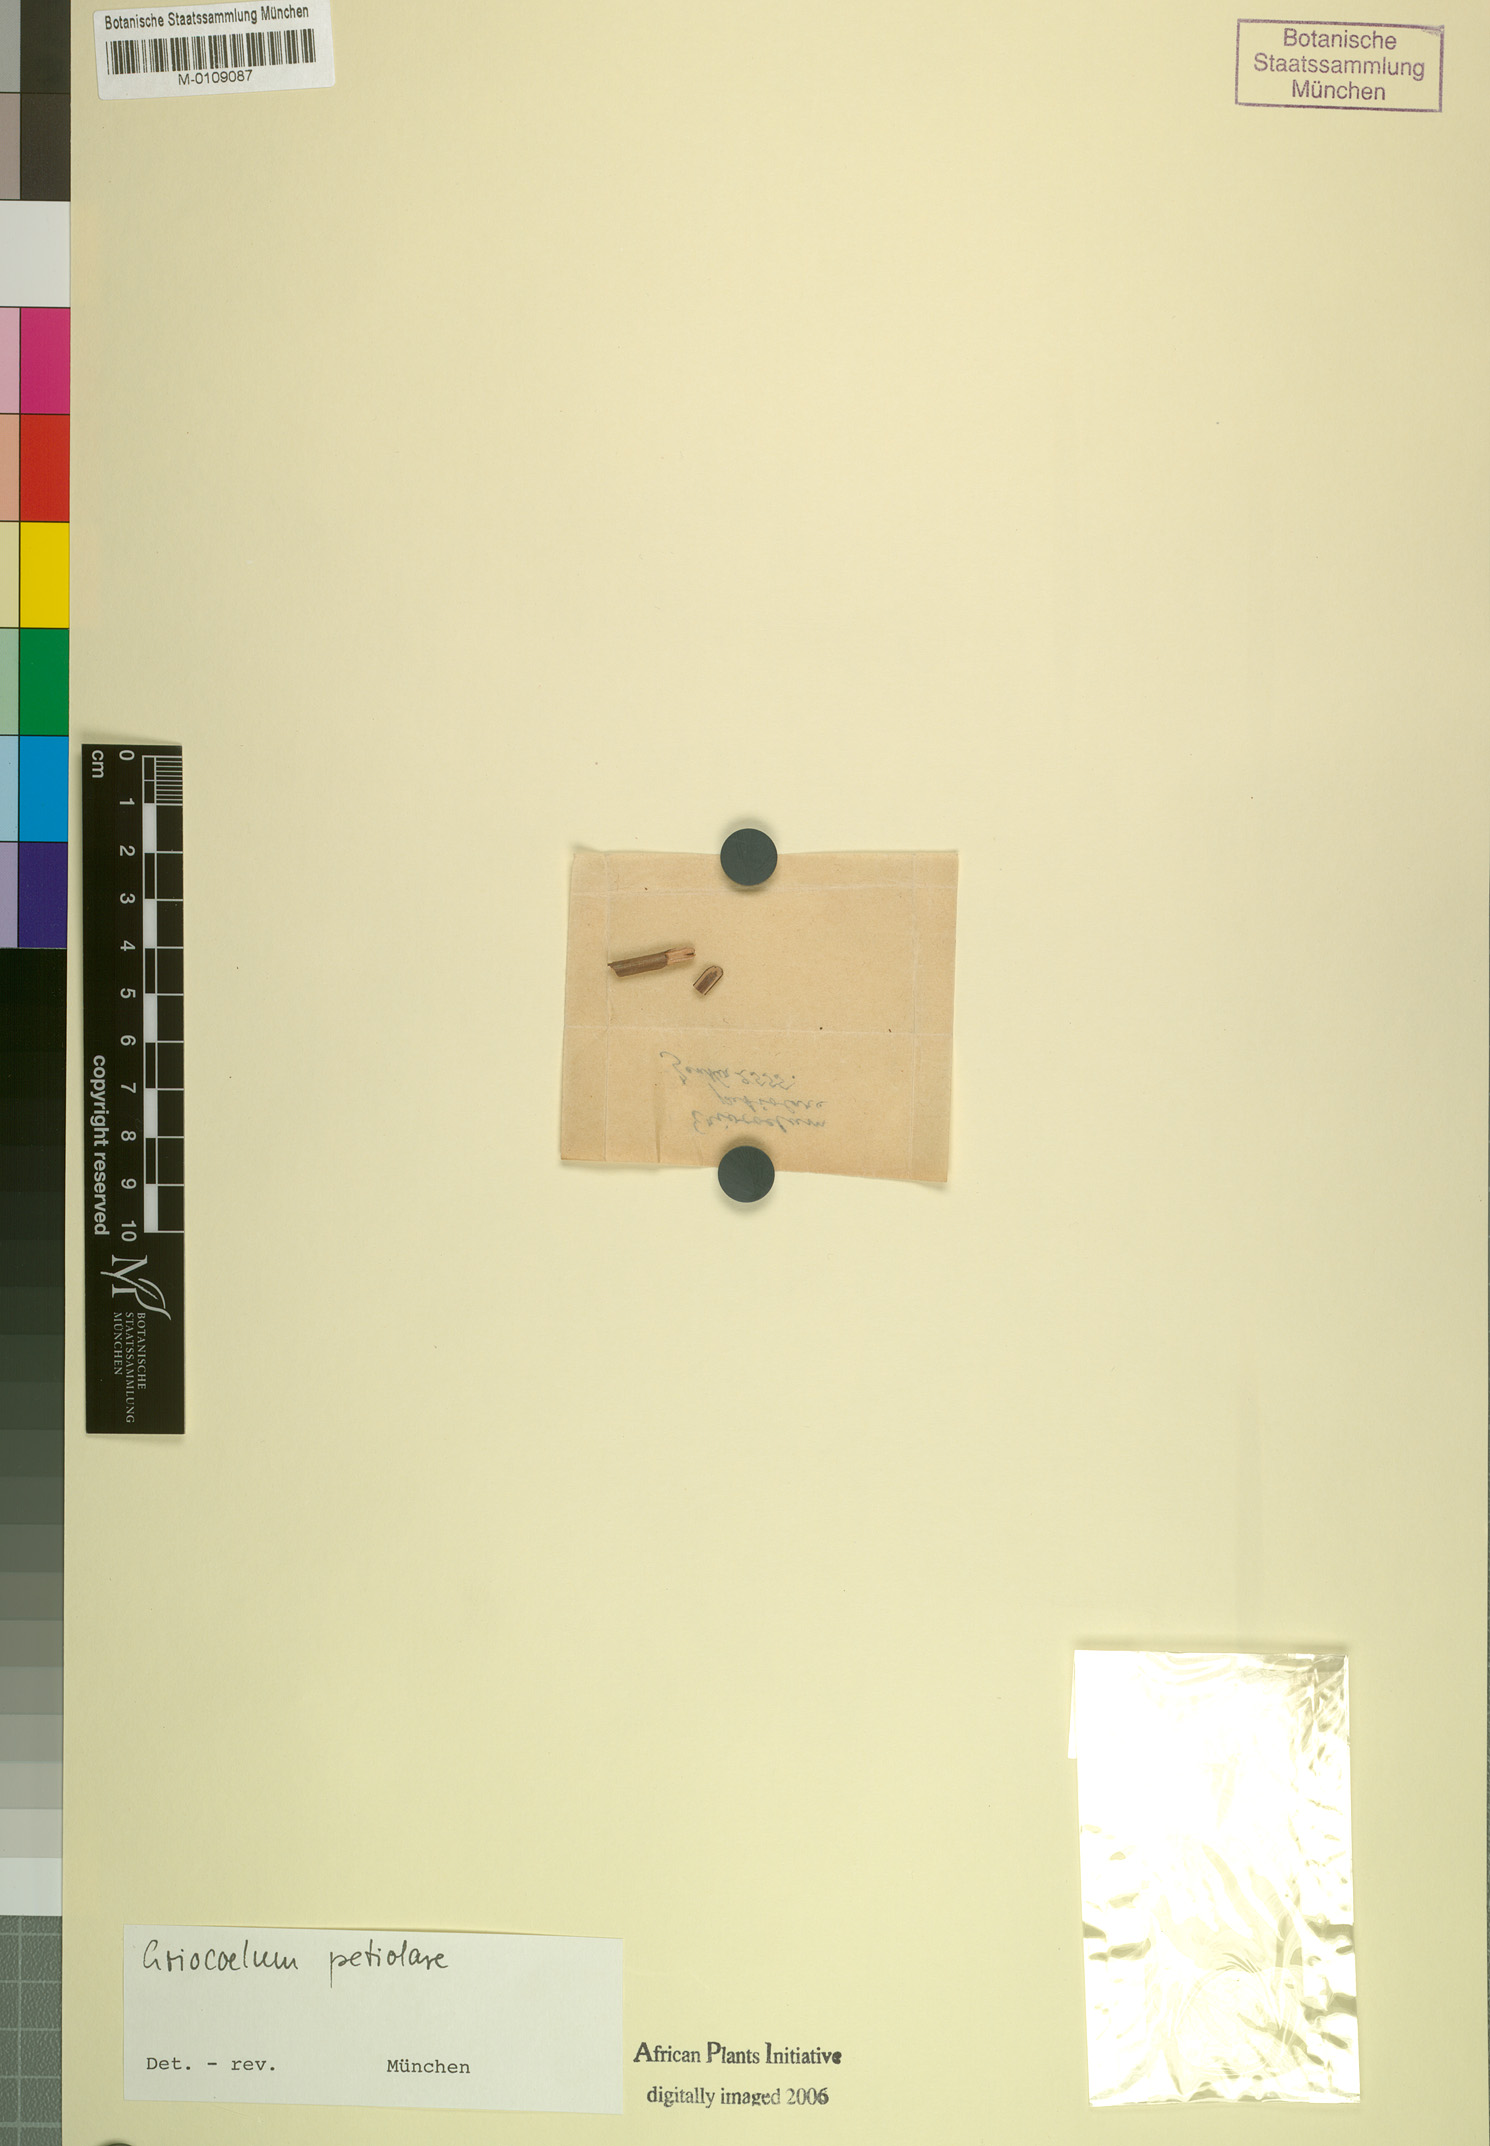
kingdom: Plantae
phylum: Tracheophyta
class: Magnoliopsida
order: Sapindales
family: Sapindaceae
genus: Eriocoelum
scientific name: Eriocoelum petiolare
